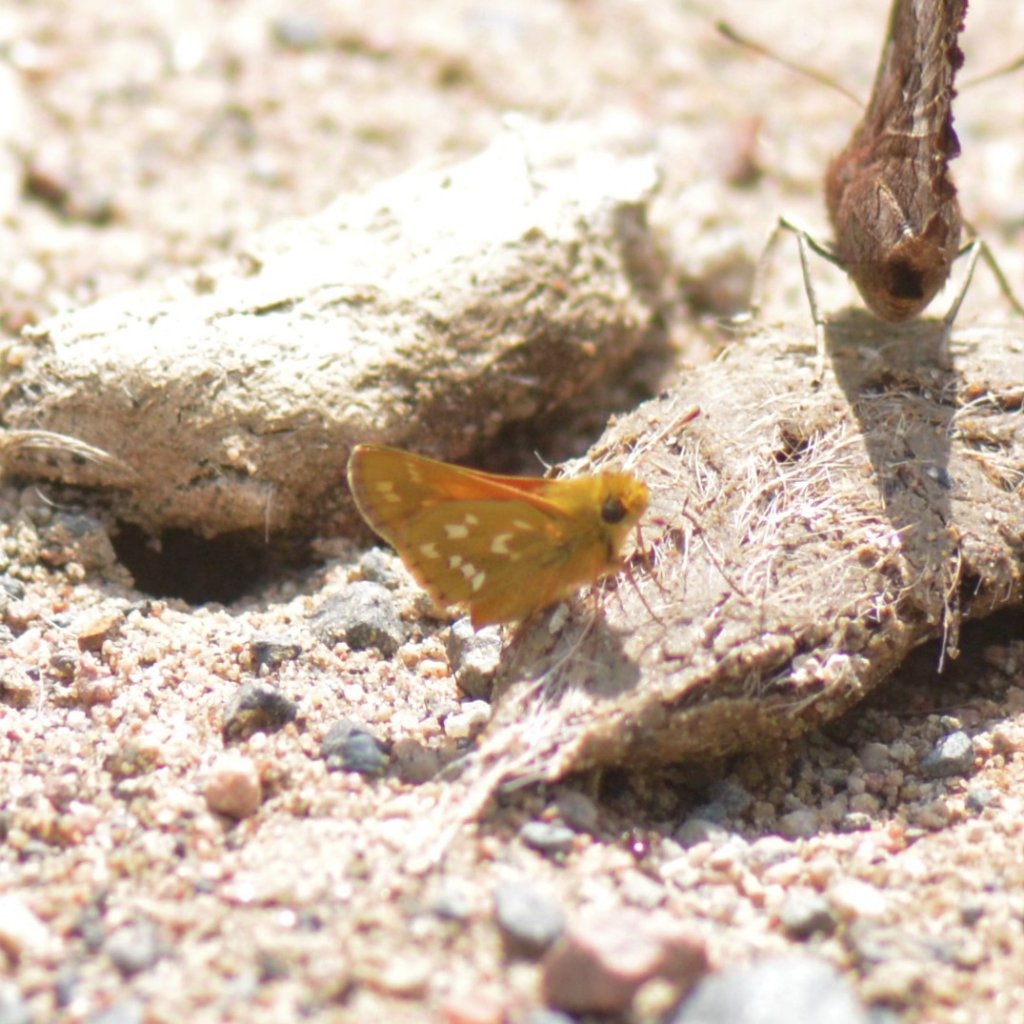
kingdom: Animalia
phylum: Arthropoda
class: Insecta
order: Lepidoptera
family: Hesperiidae
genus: Hesperia
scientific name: Hesperia comma
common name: Common Branded Skipper
